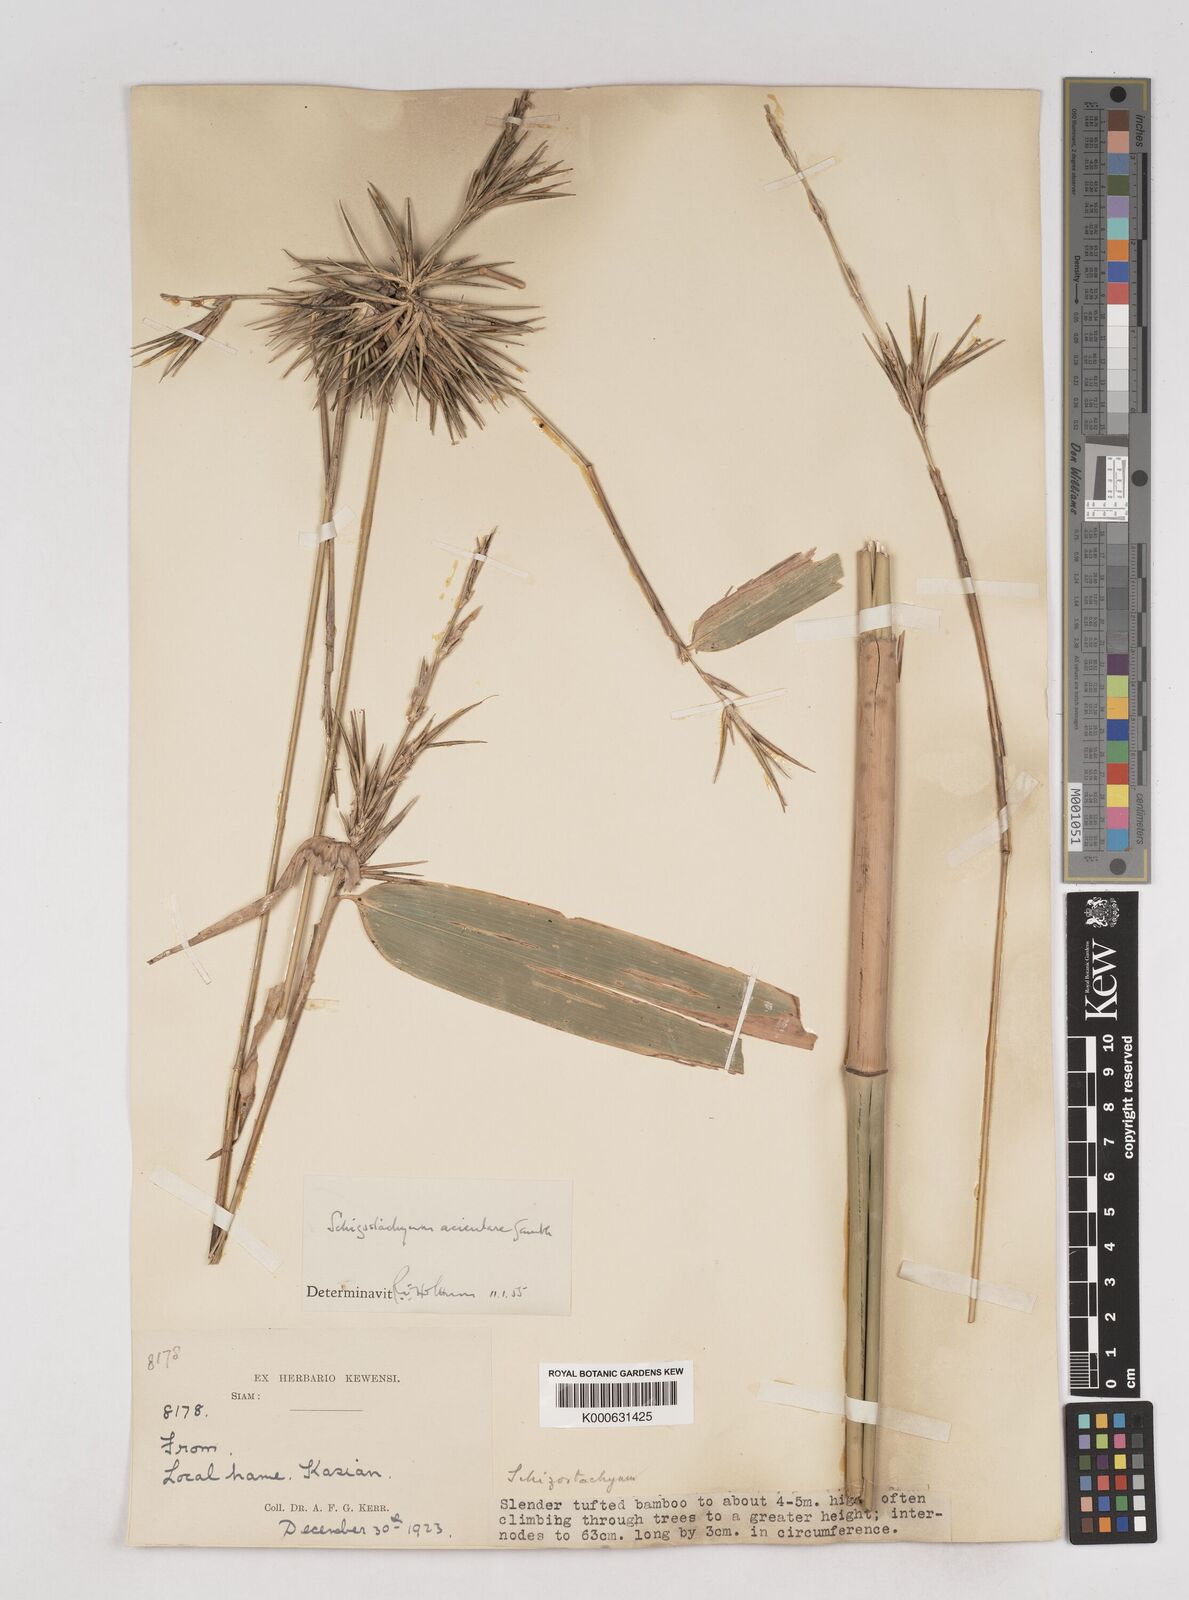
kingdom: Plantae
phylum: Tracheophyta
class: Liliopsida
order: Poales
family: Poaceae
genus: Schizostachyum
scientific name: Schizostachyum aciculare
